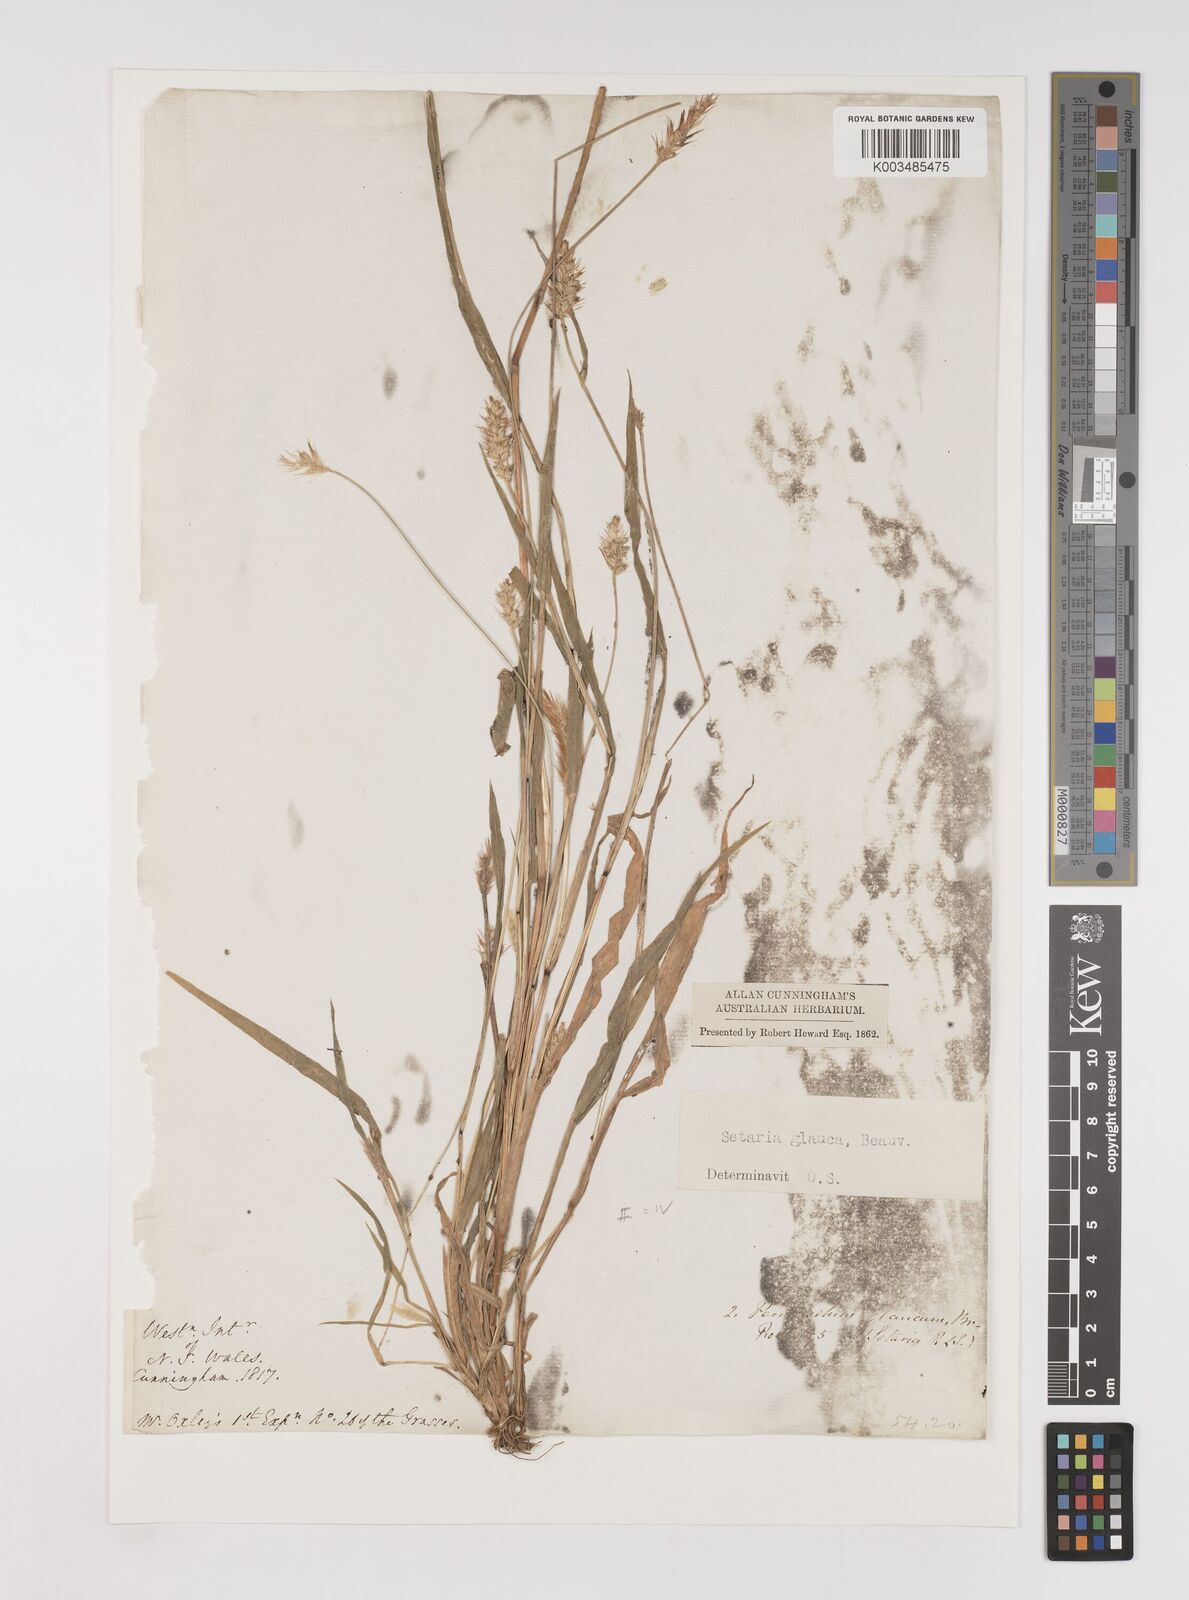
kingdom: Plantae
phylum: Tracheophyta
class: Liliopsida
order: Poales
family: Poaceae
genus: Setaria
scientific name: Setaria pumila
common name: Yellow bristle-grass
